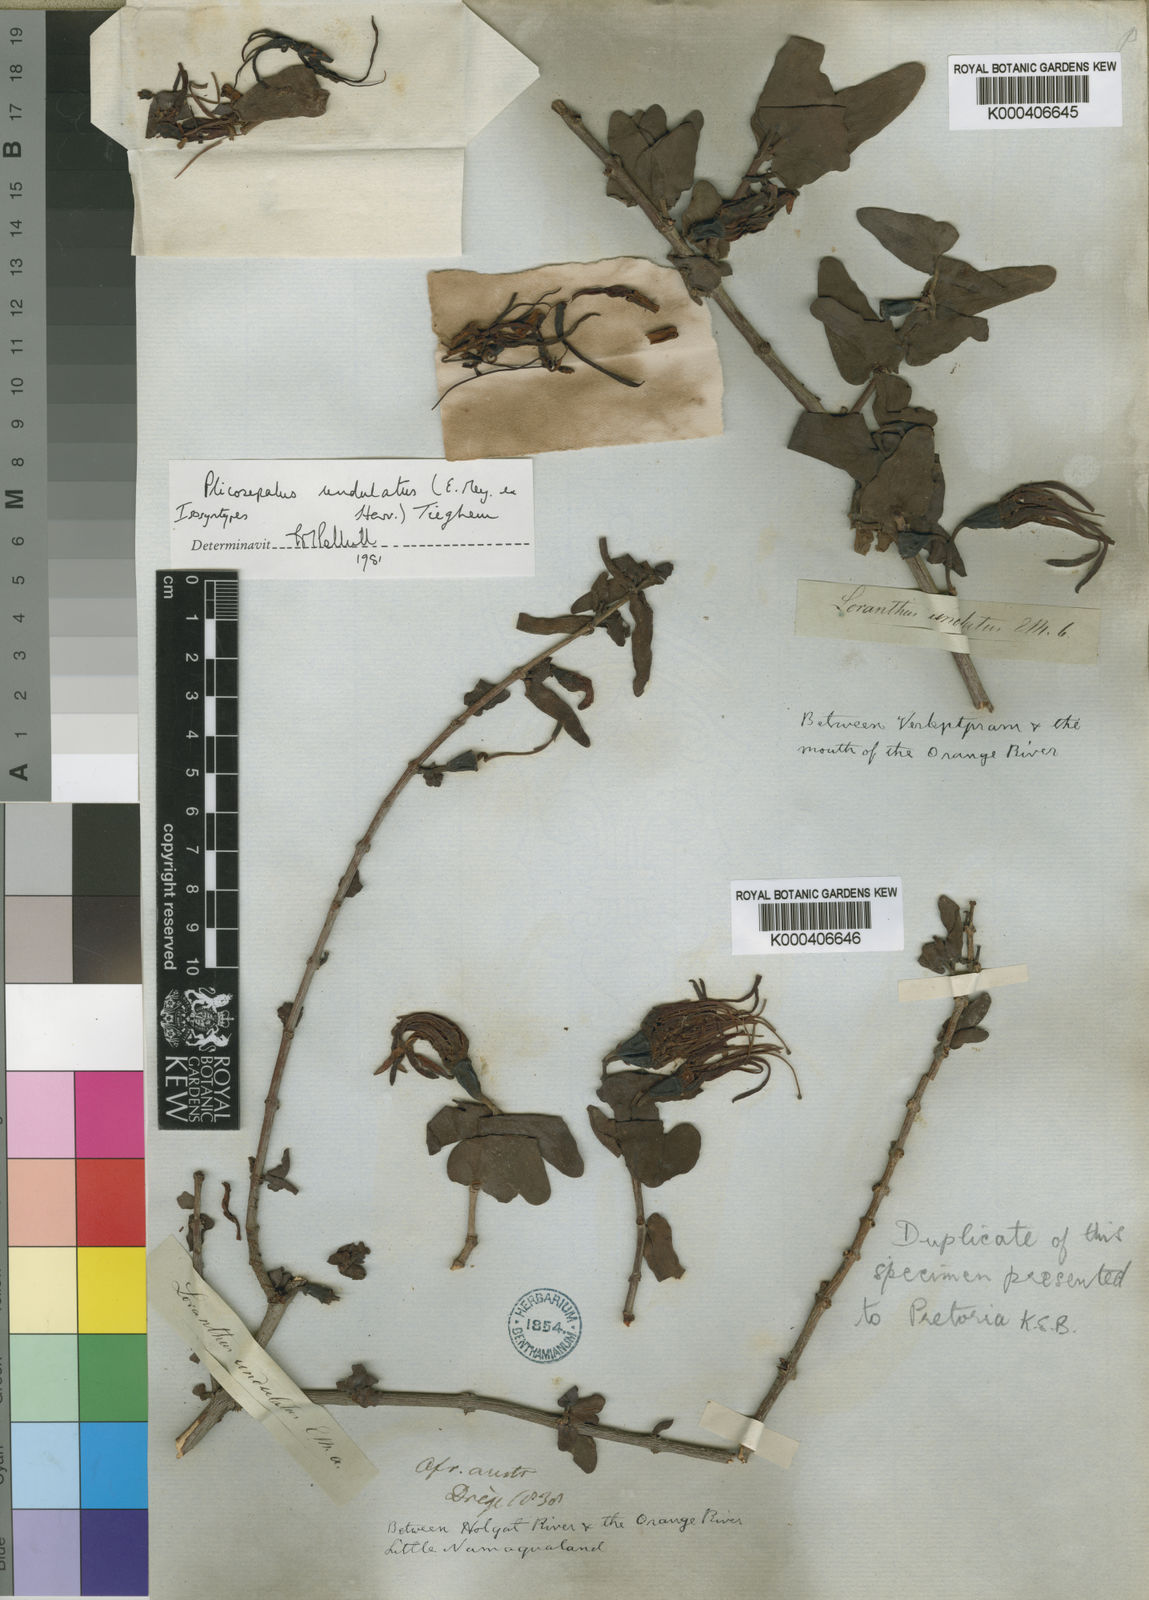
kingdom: Plantae
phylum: Tracheophyta
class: Magnoliopsida
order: Santalales
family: Loranthaceae
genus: Plicosepalus
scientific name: Plicosepalus undulatus
